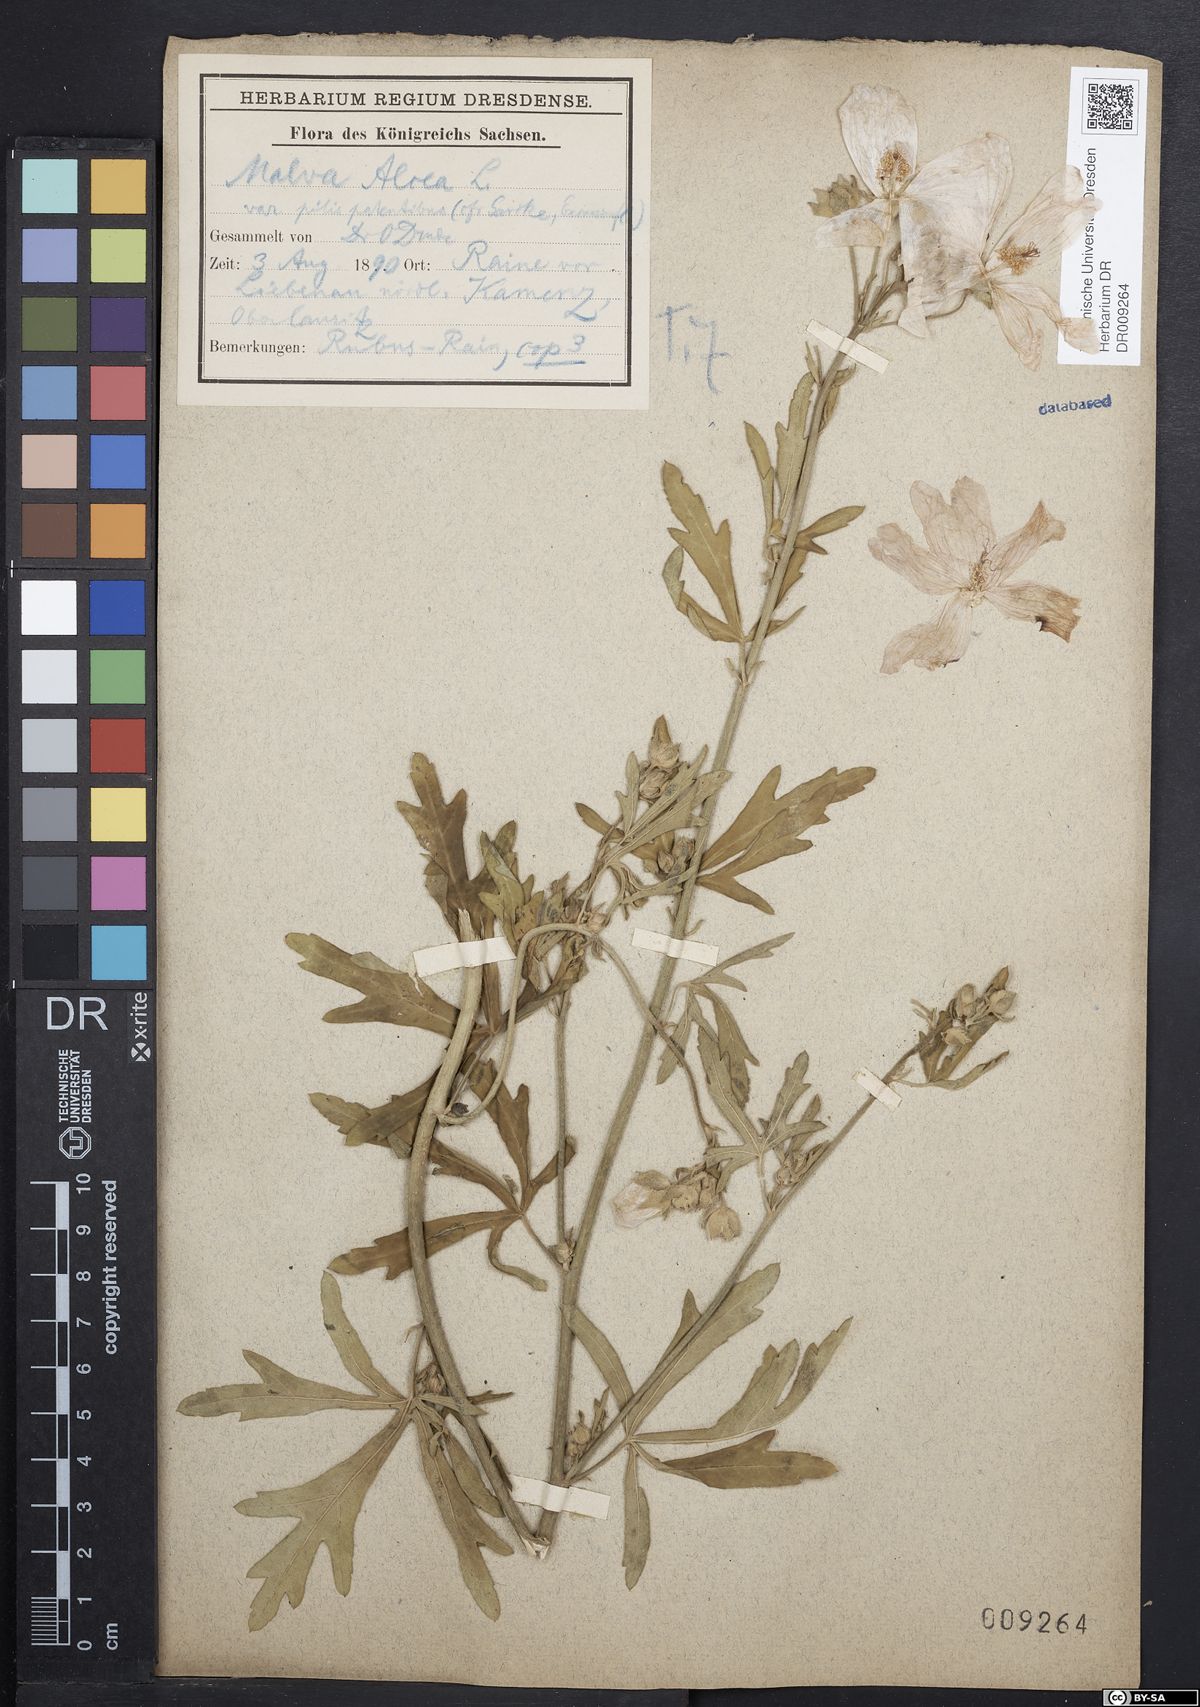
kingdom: Plantae
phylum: Tracheophyta
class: Magnoliopsida
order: Malvales
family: Malvaceae
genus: Malva
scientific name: Malva alcea
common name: Greater musk-mallow
